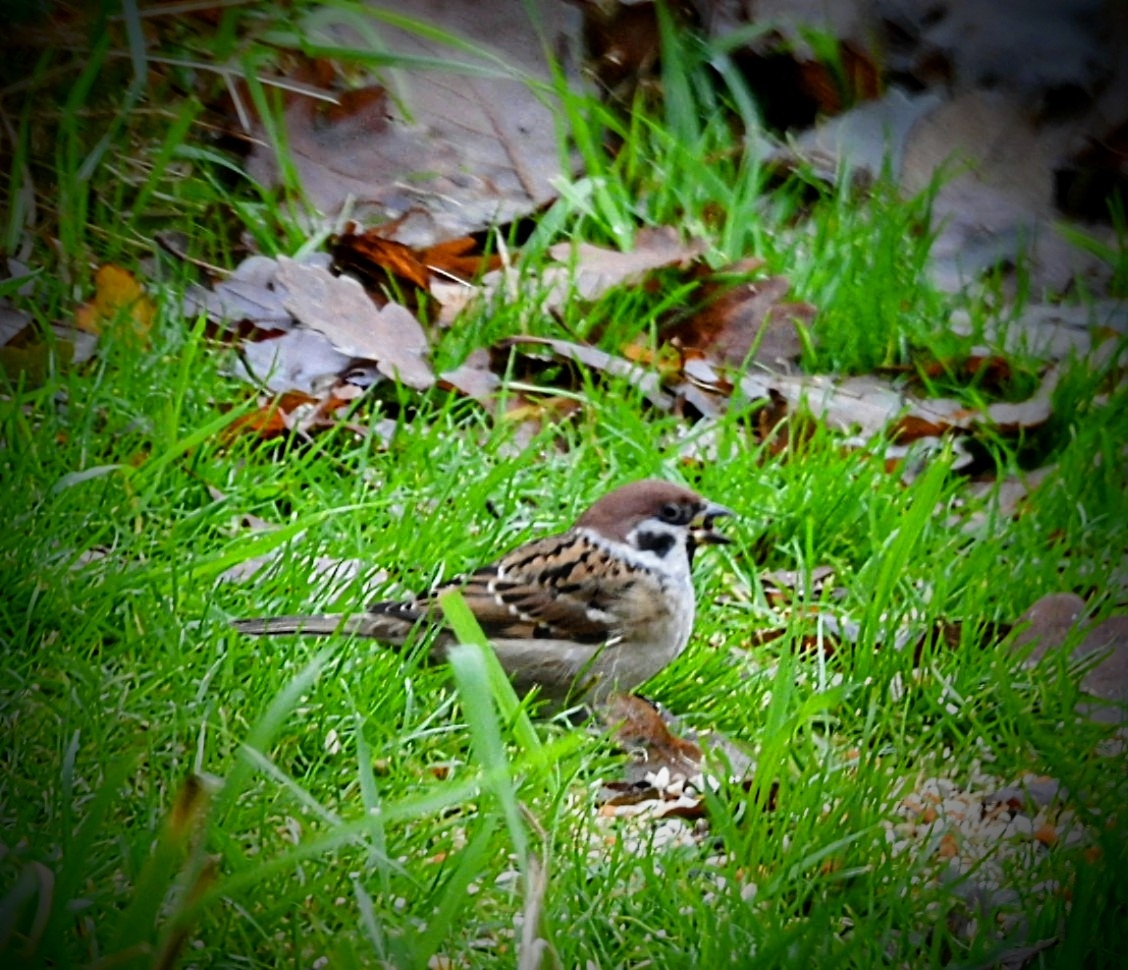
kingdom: Animalia
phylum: Chordata
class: Aves
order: Passeriformes
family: Passeridae
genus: Passer
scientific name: Passer montanus
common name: Skovspurv
